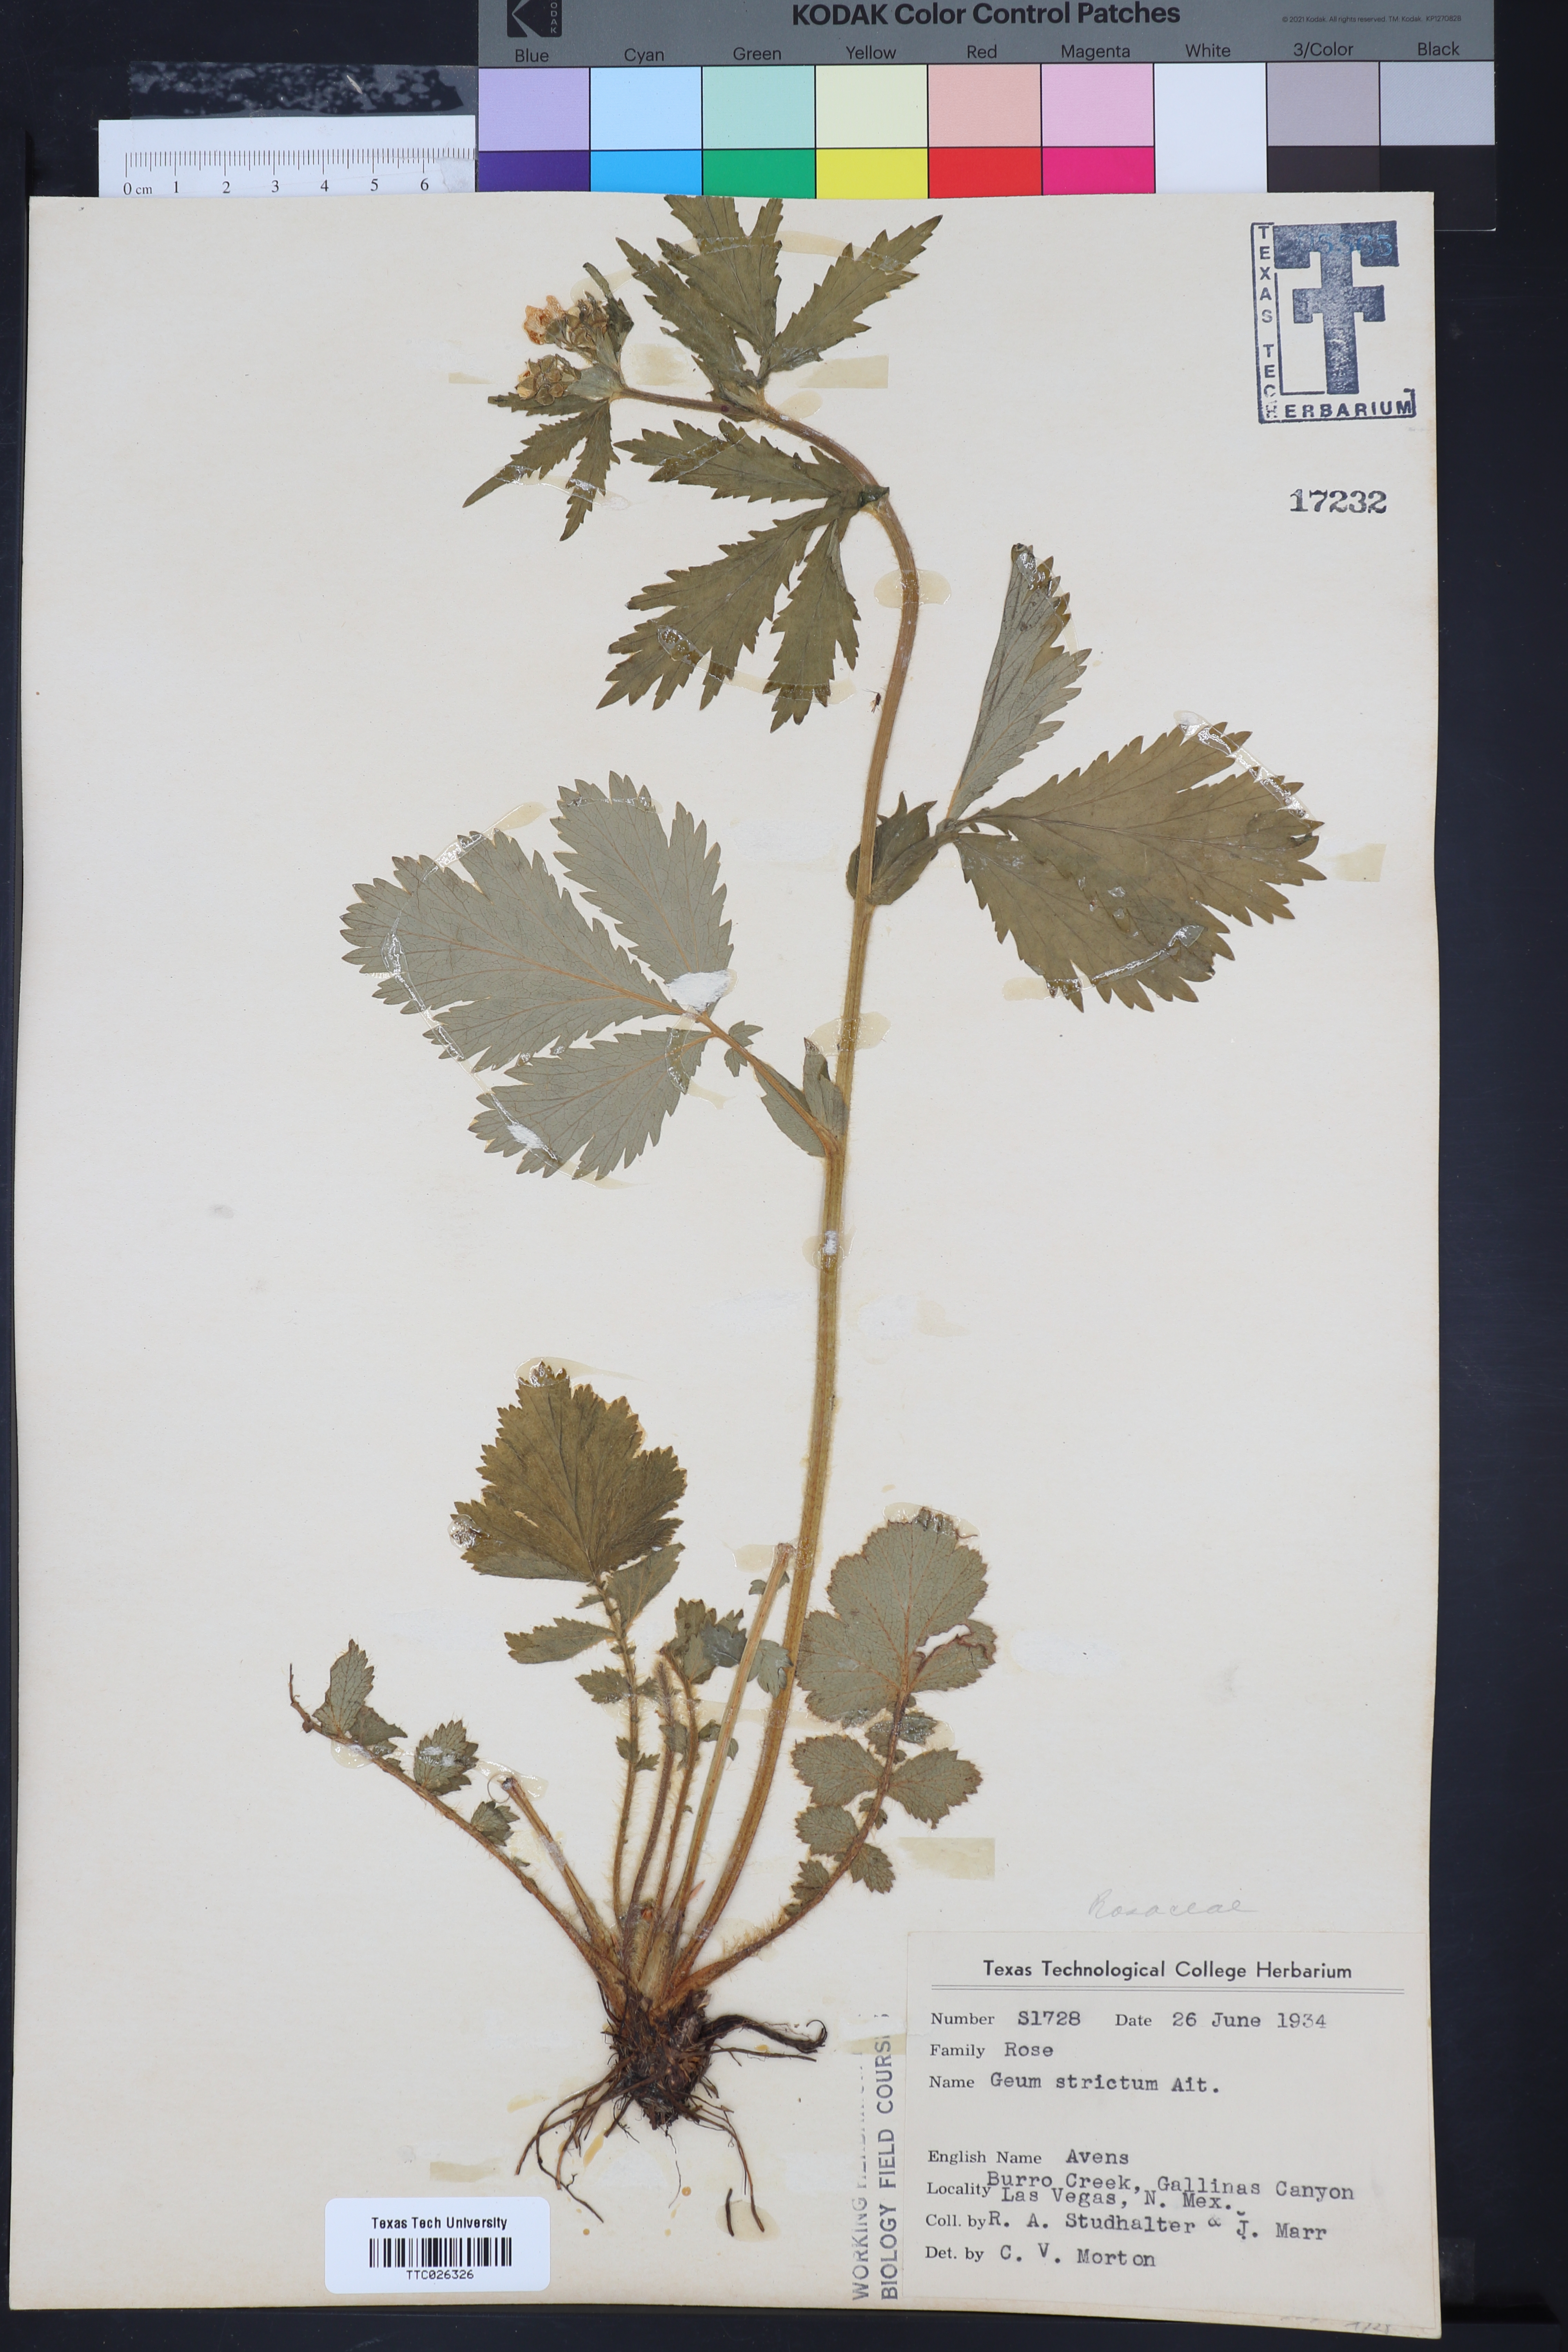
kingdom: Plantae
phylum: Tracheophyta
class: Magnoliopsida
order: Rosales
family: Rosaceae
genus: Geum
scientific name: Geum aleppicum
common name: Yellow avens
